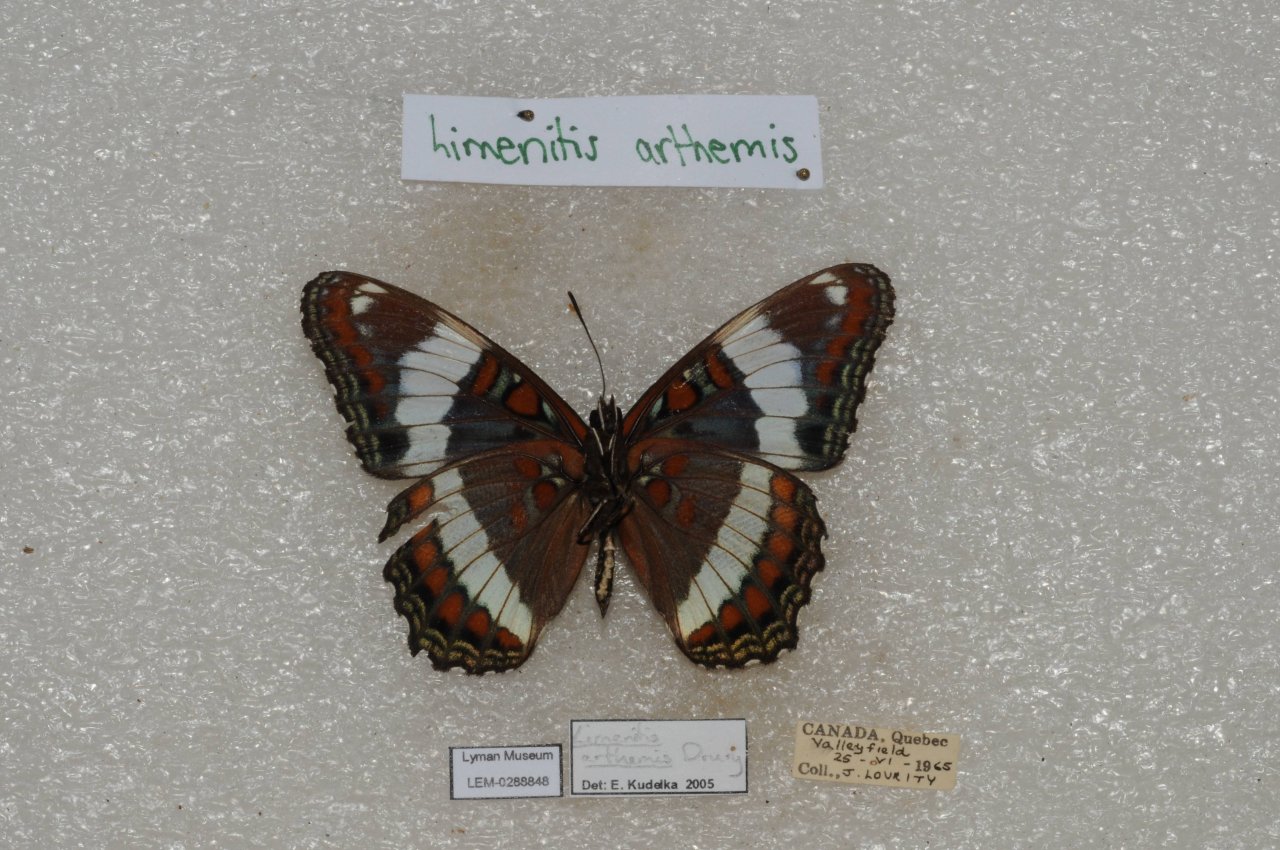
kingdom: Animalia
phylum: Arthropoda
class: Insecta
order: Lepidoptera
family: Nymphalidae
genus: Limenitis
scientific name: Limenitis arthemis
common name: Red-spotted Admiral
